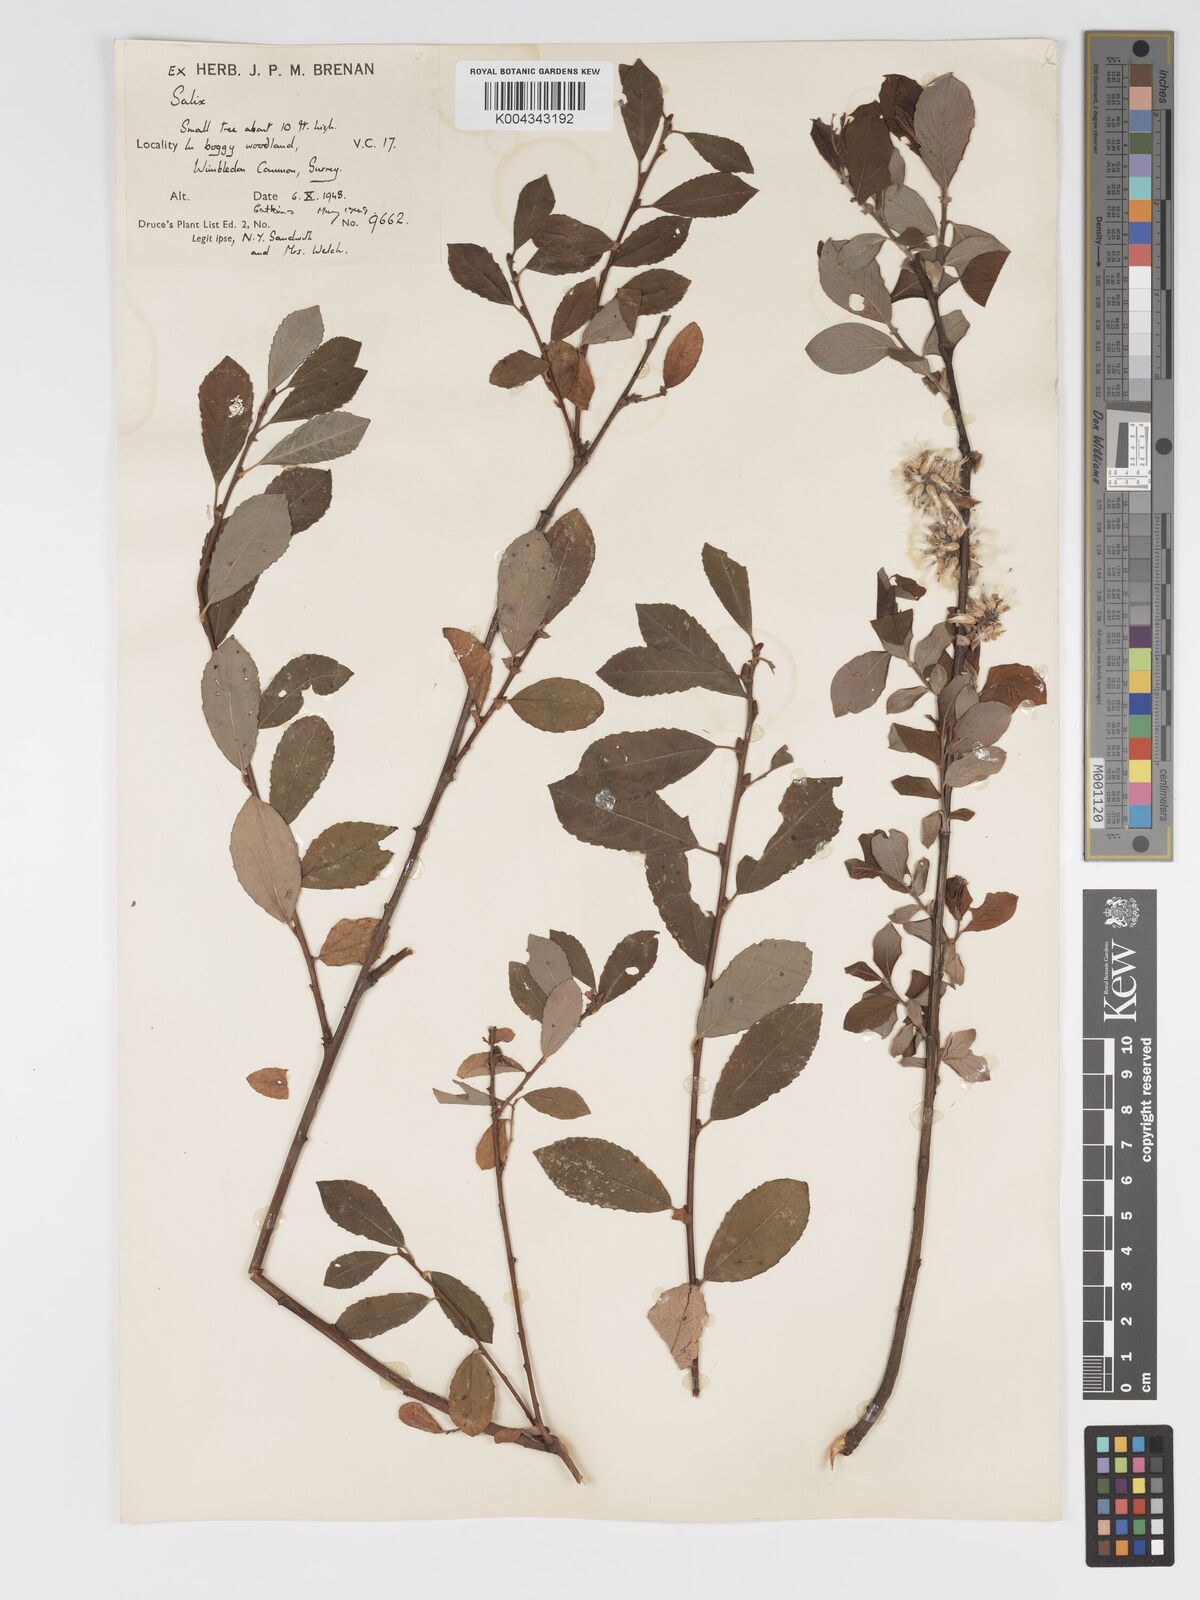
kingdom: Plantae
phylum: Tracheophyta
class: Magnoliopsida
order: Malpighiales
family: Salicaceae
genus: Salix
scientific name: Salix aurita
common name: Eared willow
